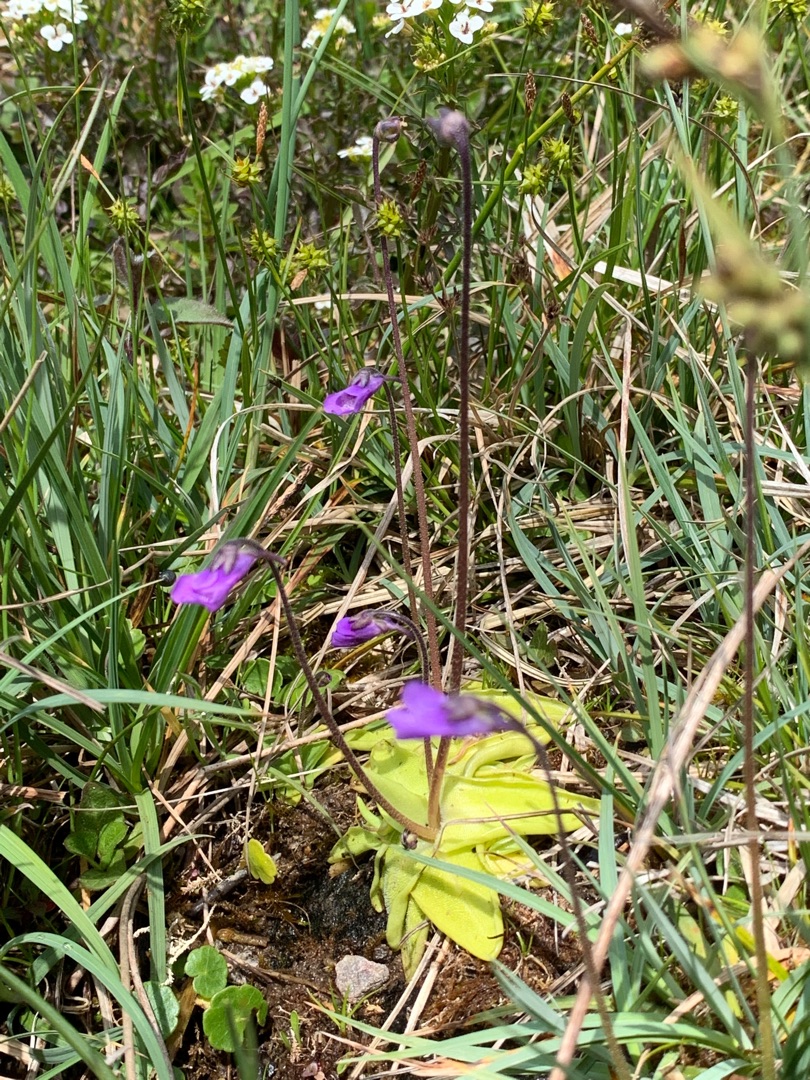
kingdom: Plantae
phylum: Tracheophyta
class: Magnoliopsida
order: Lamiales
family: Lentibulariaceae
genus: Pinguicula
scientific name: Pinguicula vulgaris
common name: Vibefedt
